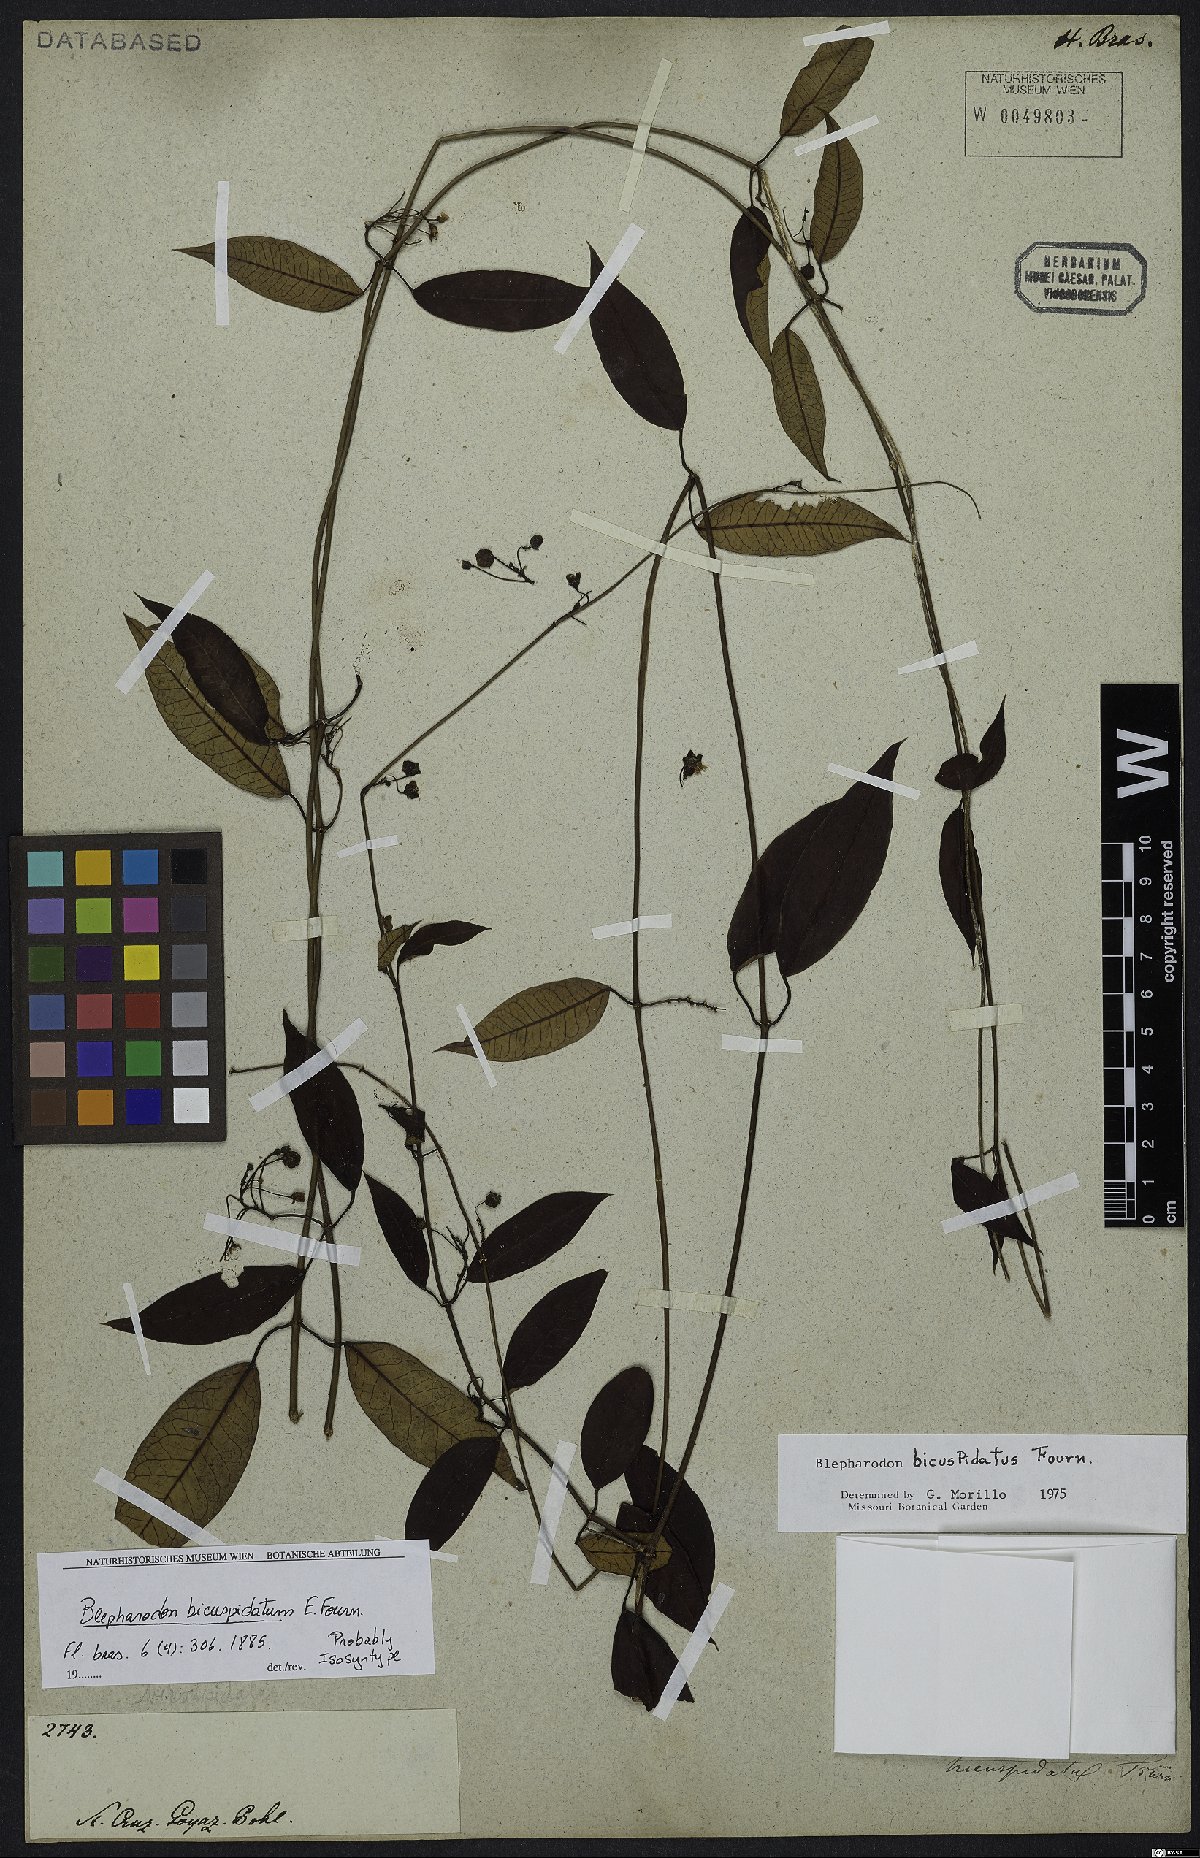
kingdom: Plantae
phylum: Tracheophyta
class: Magnoliopsida
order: Gentianales
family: Apocynaceae
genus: Blepharodon
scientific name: Blepharodon bicuspidatum
